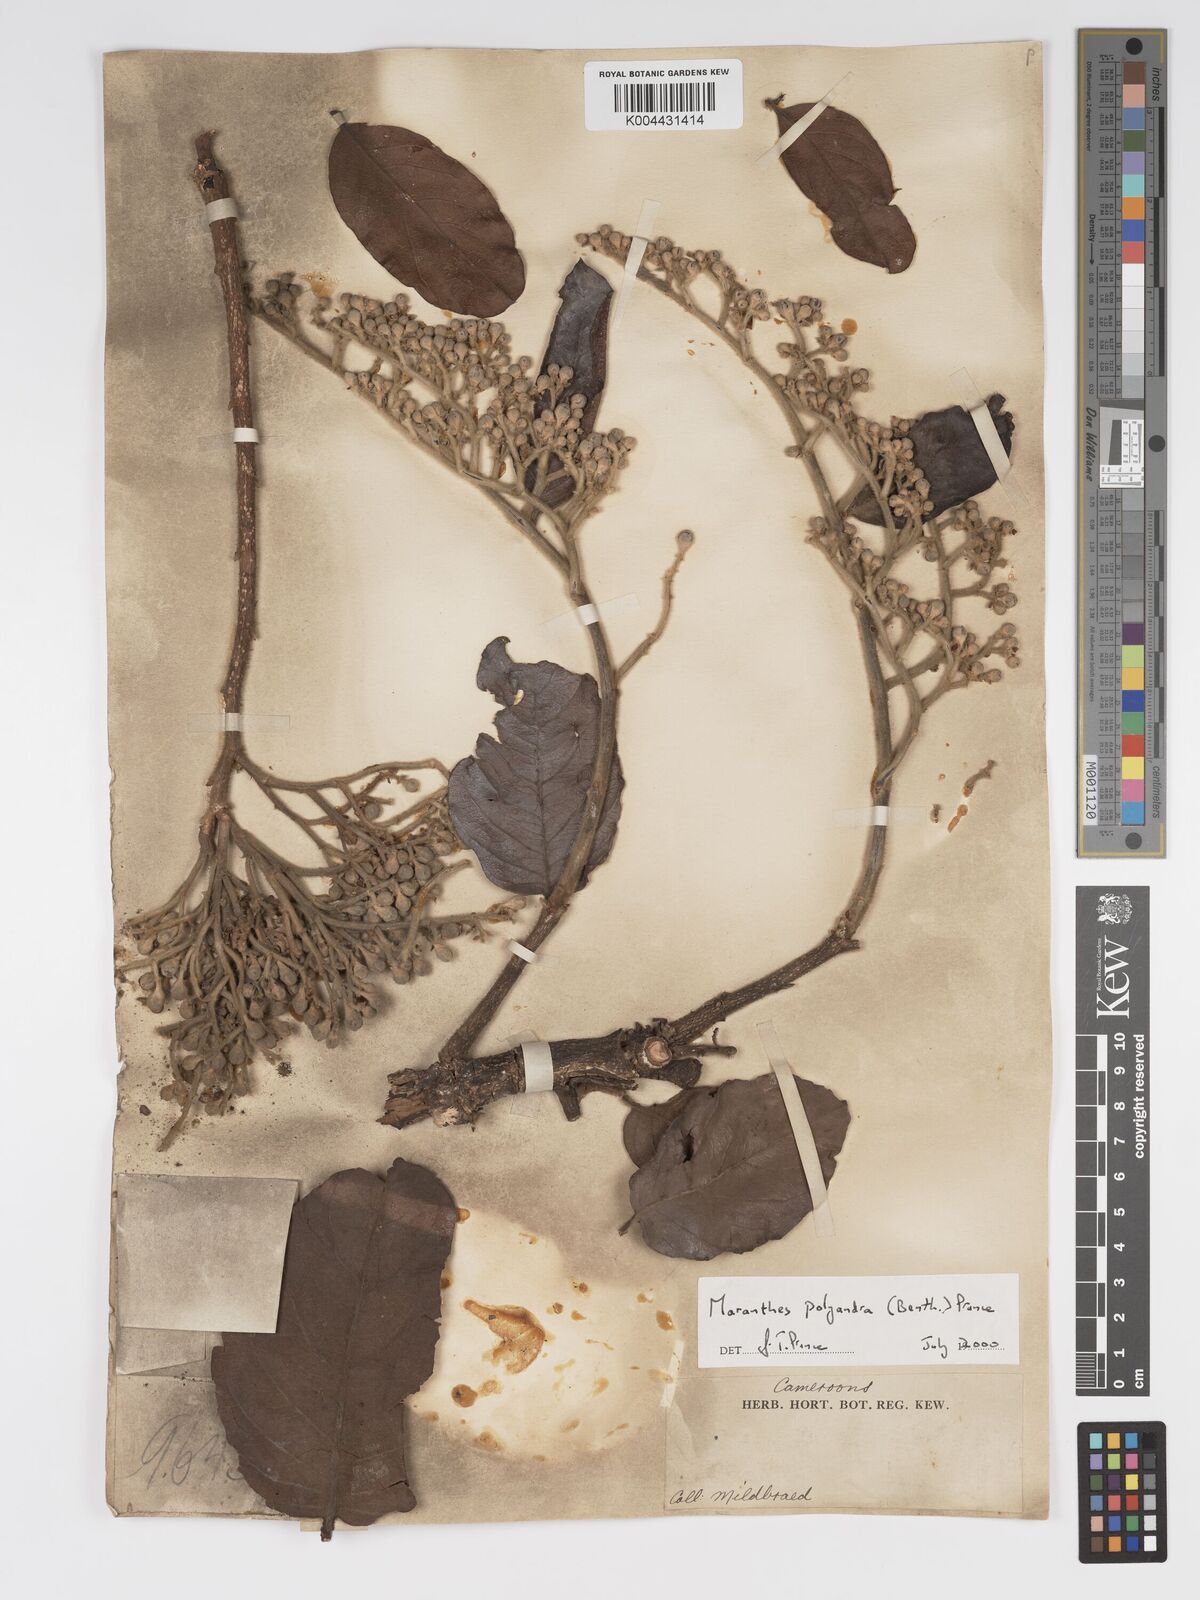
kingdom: Plantae
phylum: Tracheophyta
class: Magnoliopsida
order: Malpighiales
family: Chrysobalanaceae
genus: Maranthes
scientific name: Maranthes polyandra
